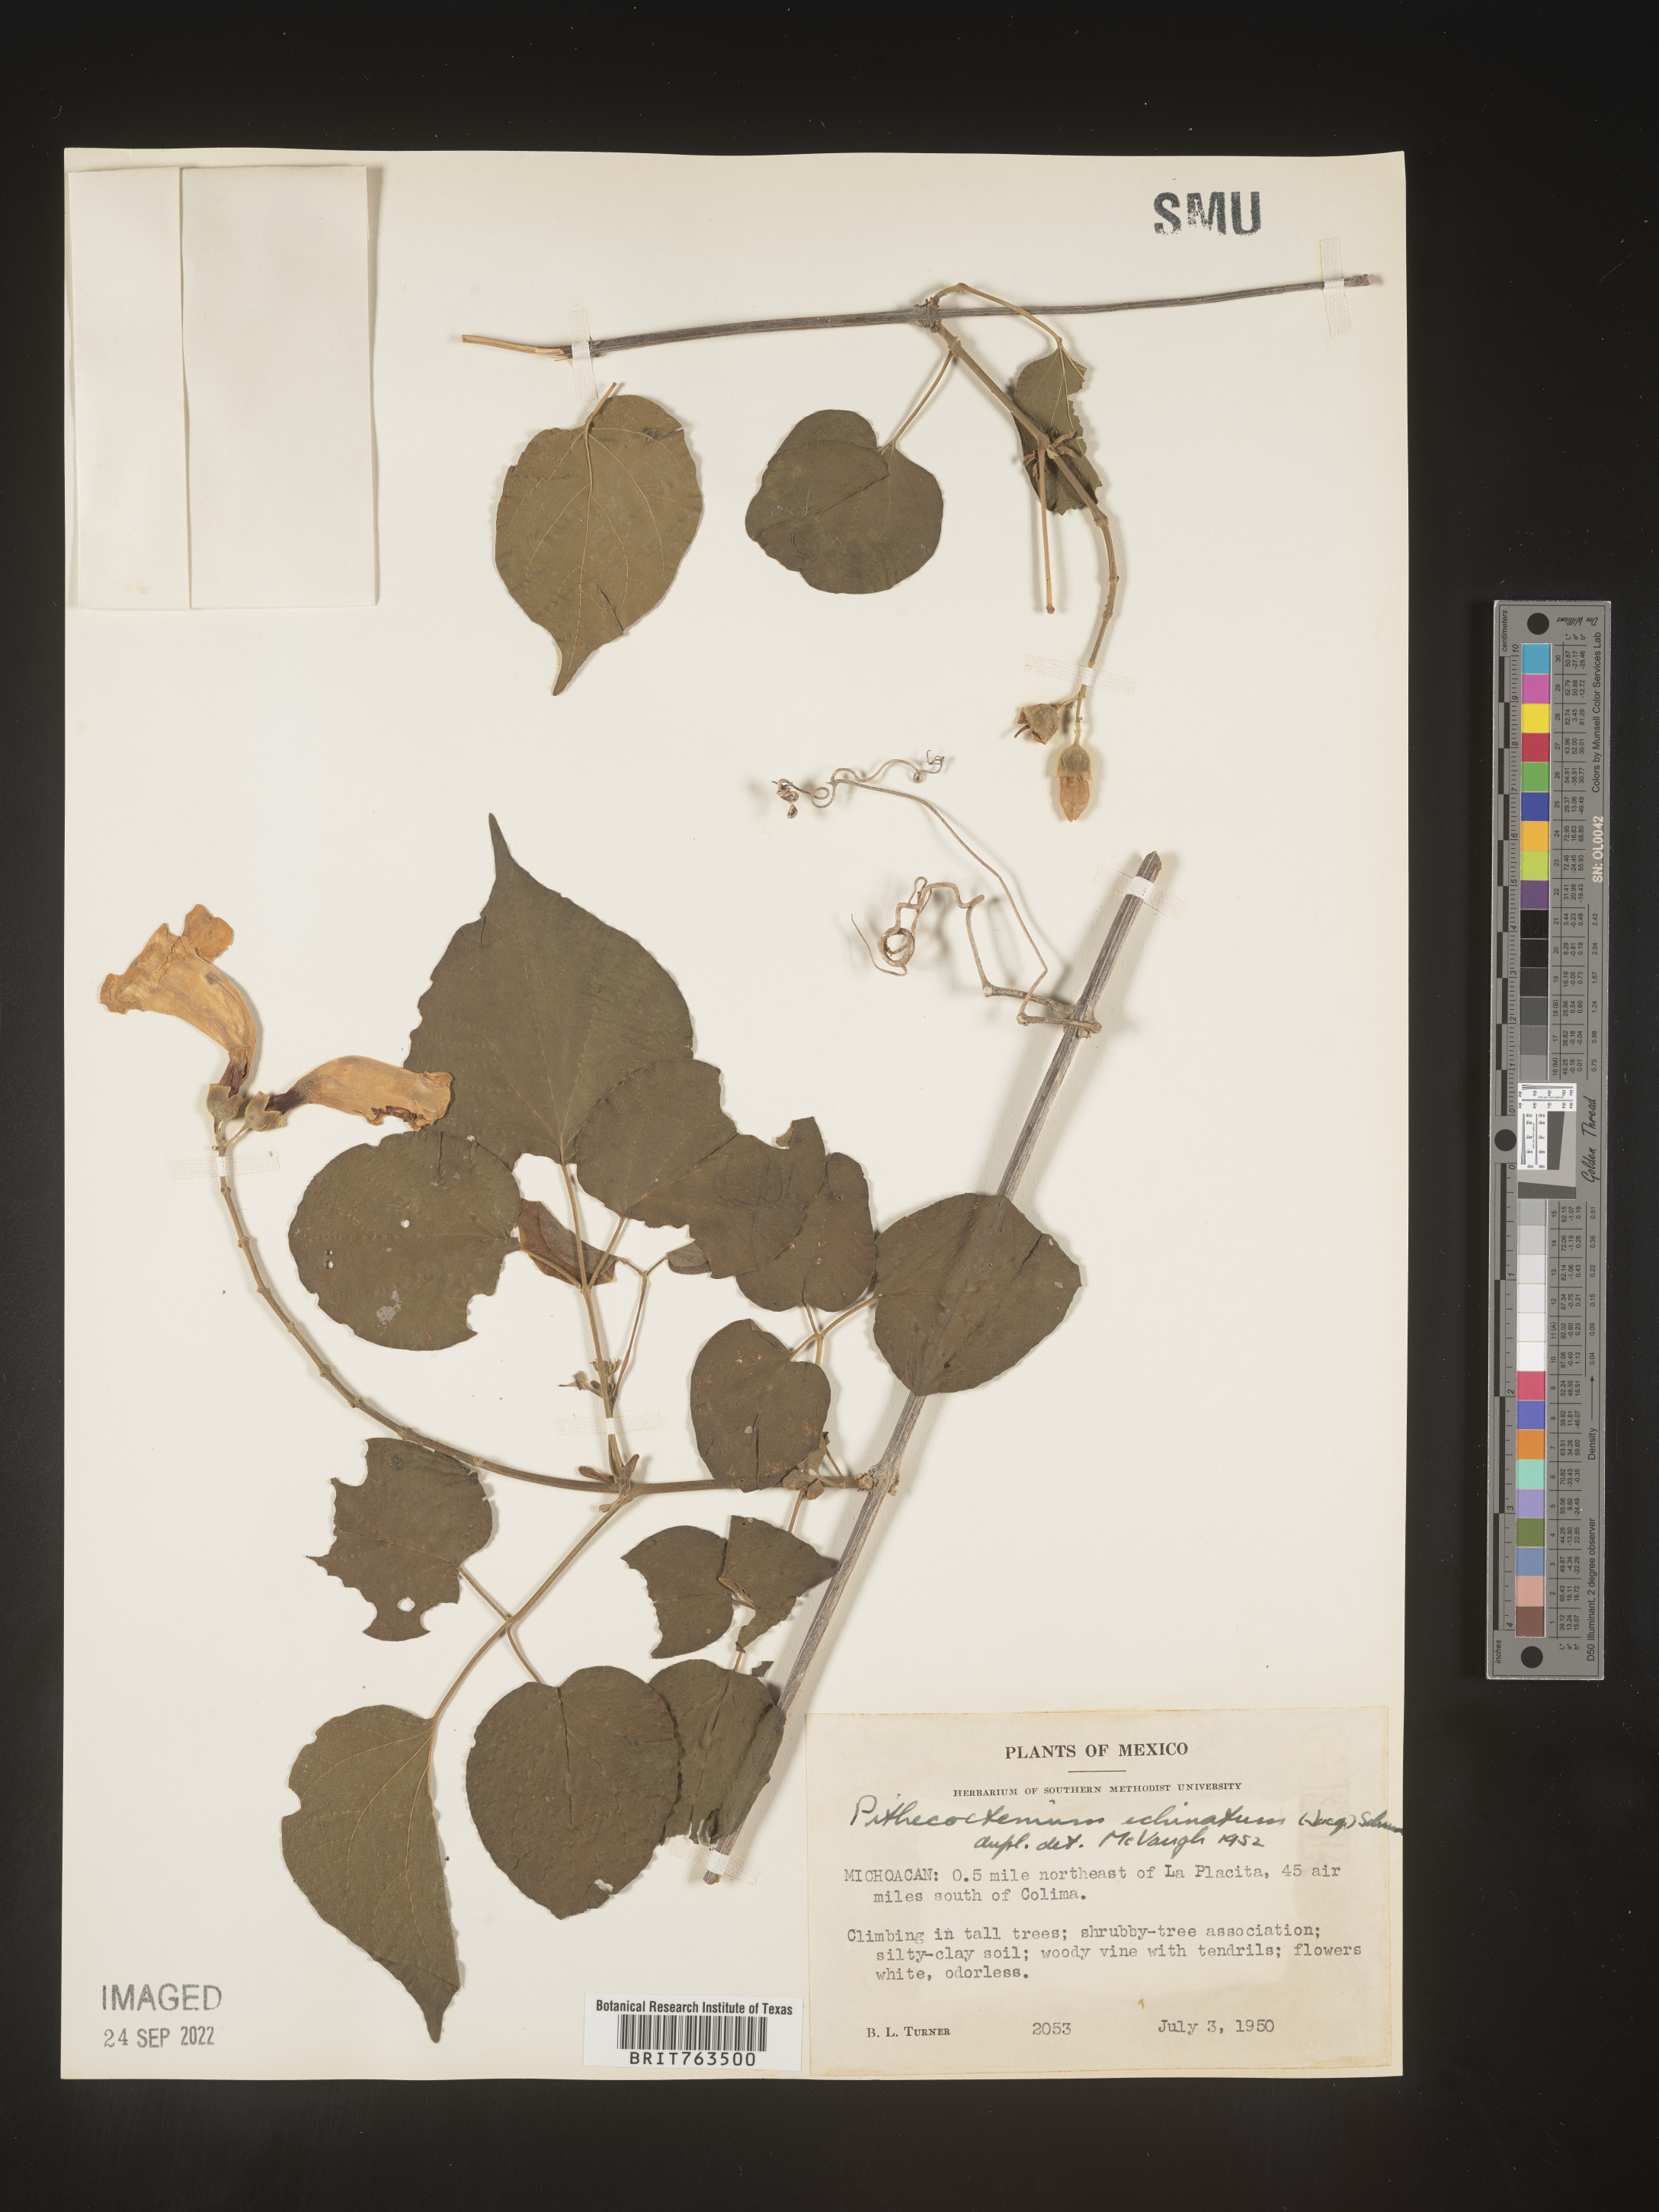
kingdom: Plantae
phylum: Tracheophyta
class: Magnoliopsida
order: Lamiales
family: Bignoniaceae
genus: Pithecoctenium
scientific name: Pithecoctenium
